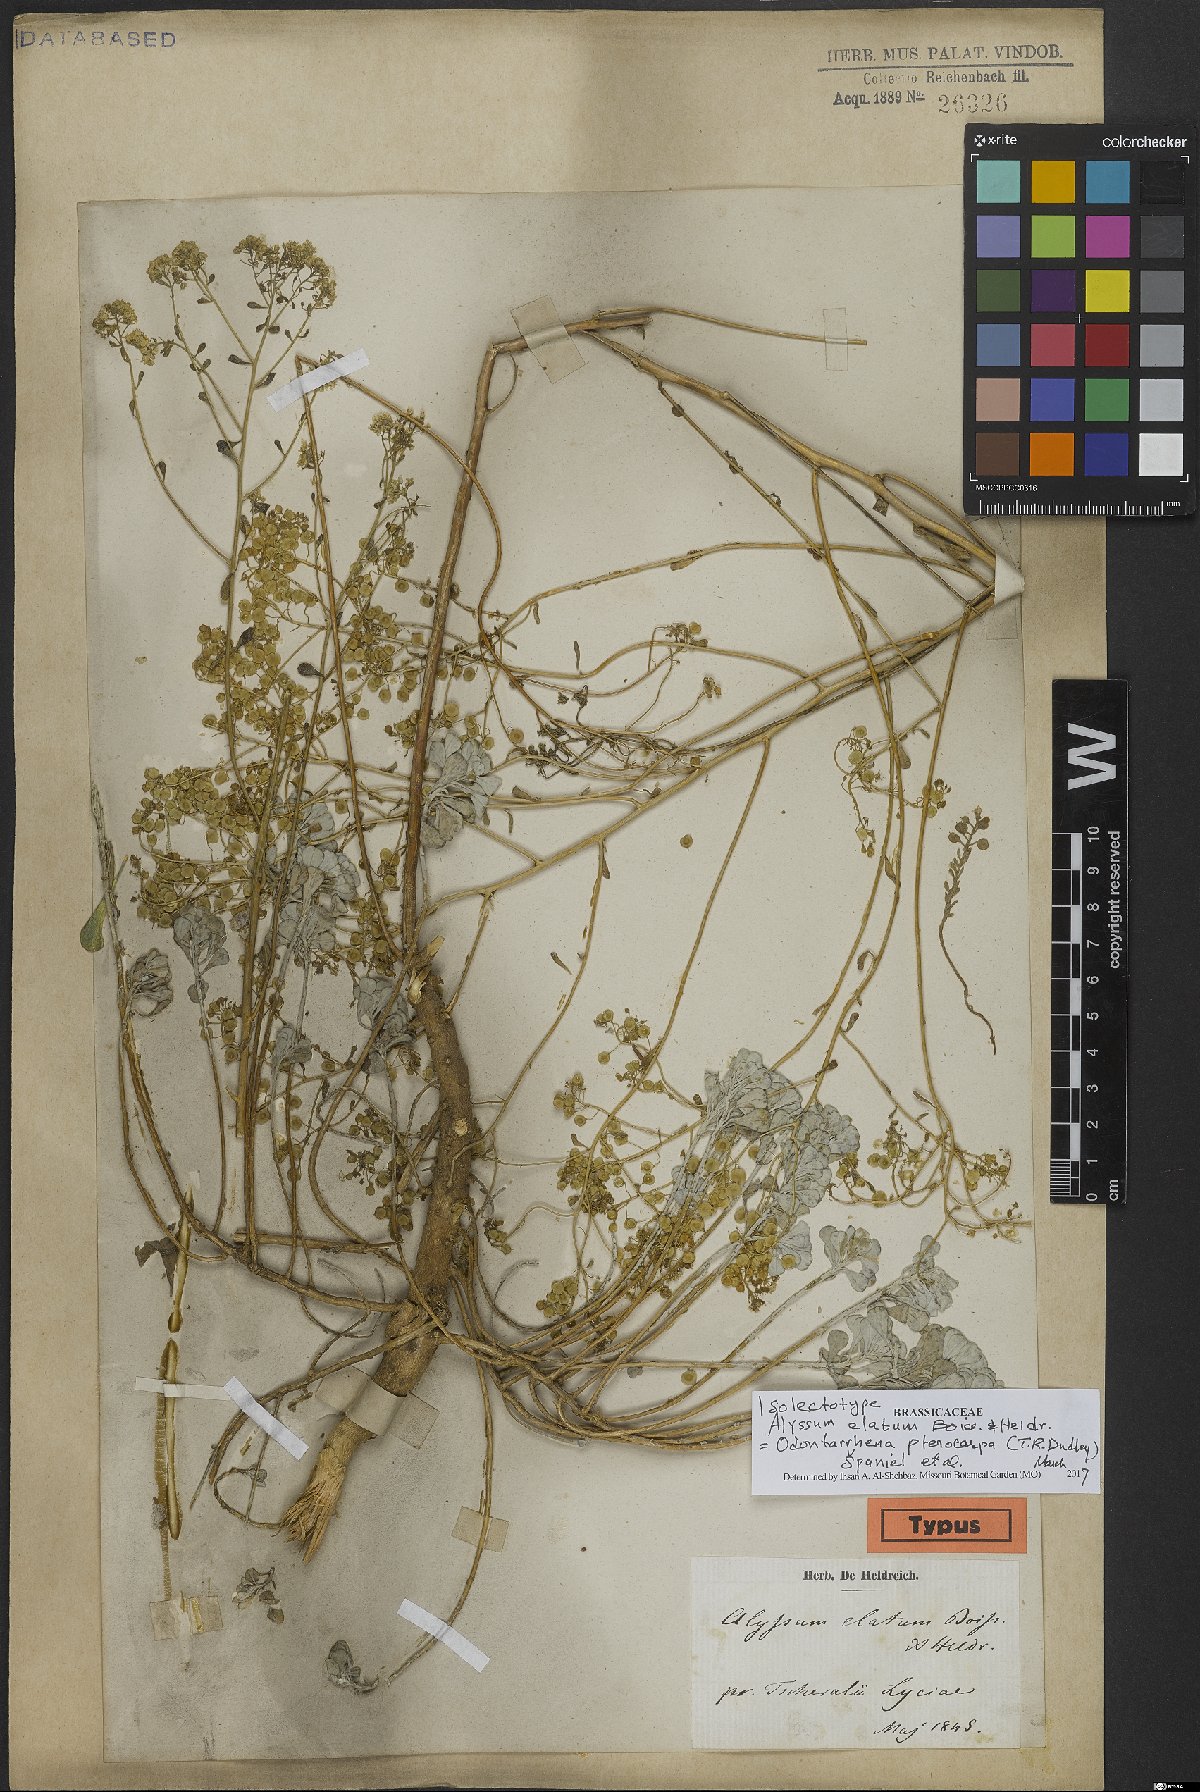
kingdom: Plantae
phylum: Tracheophyta
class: Magnoliopsida
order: Brassicales
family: Brassicaceae
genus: Odontarrhena
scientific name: Odontarrhena pterocarpa
